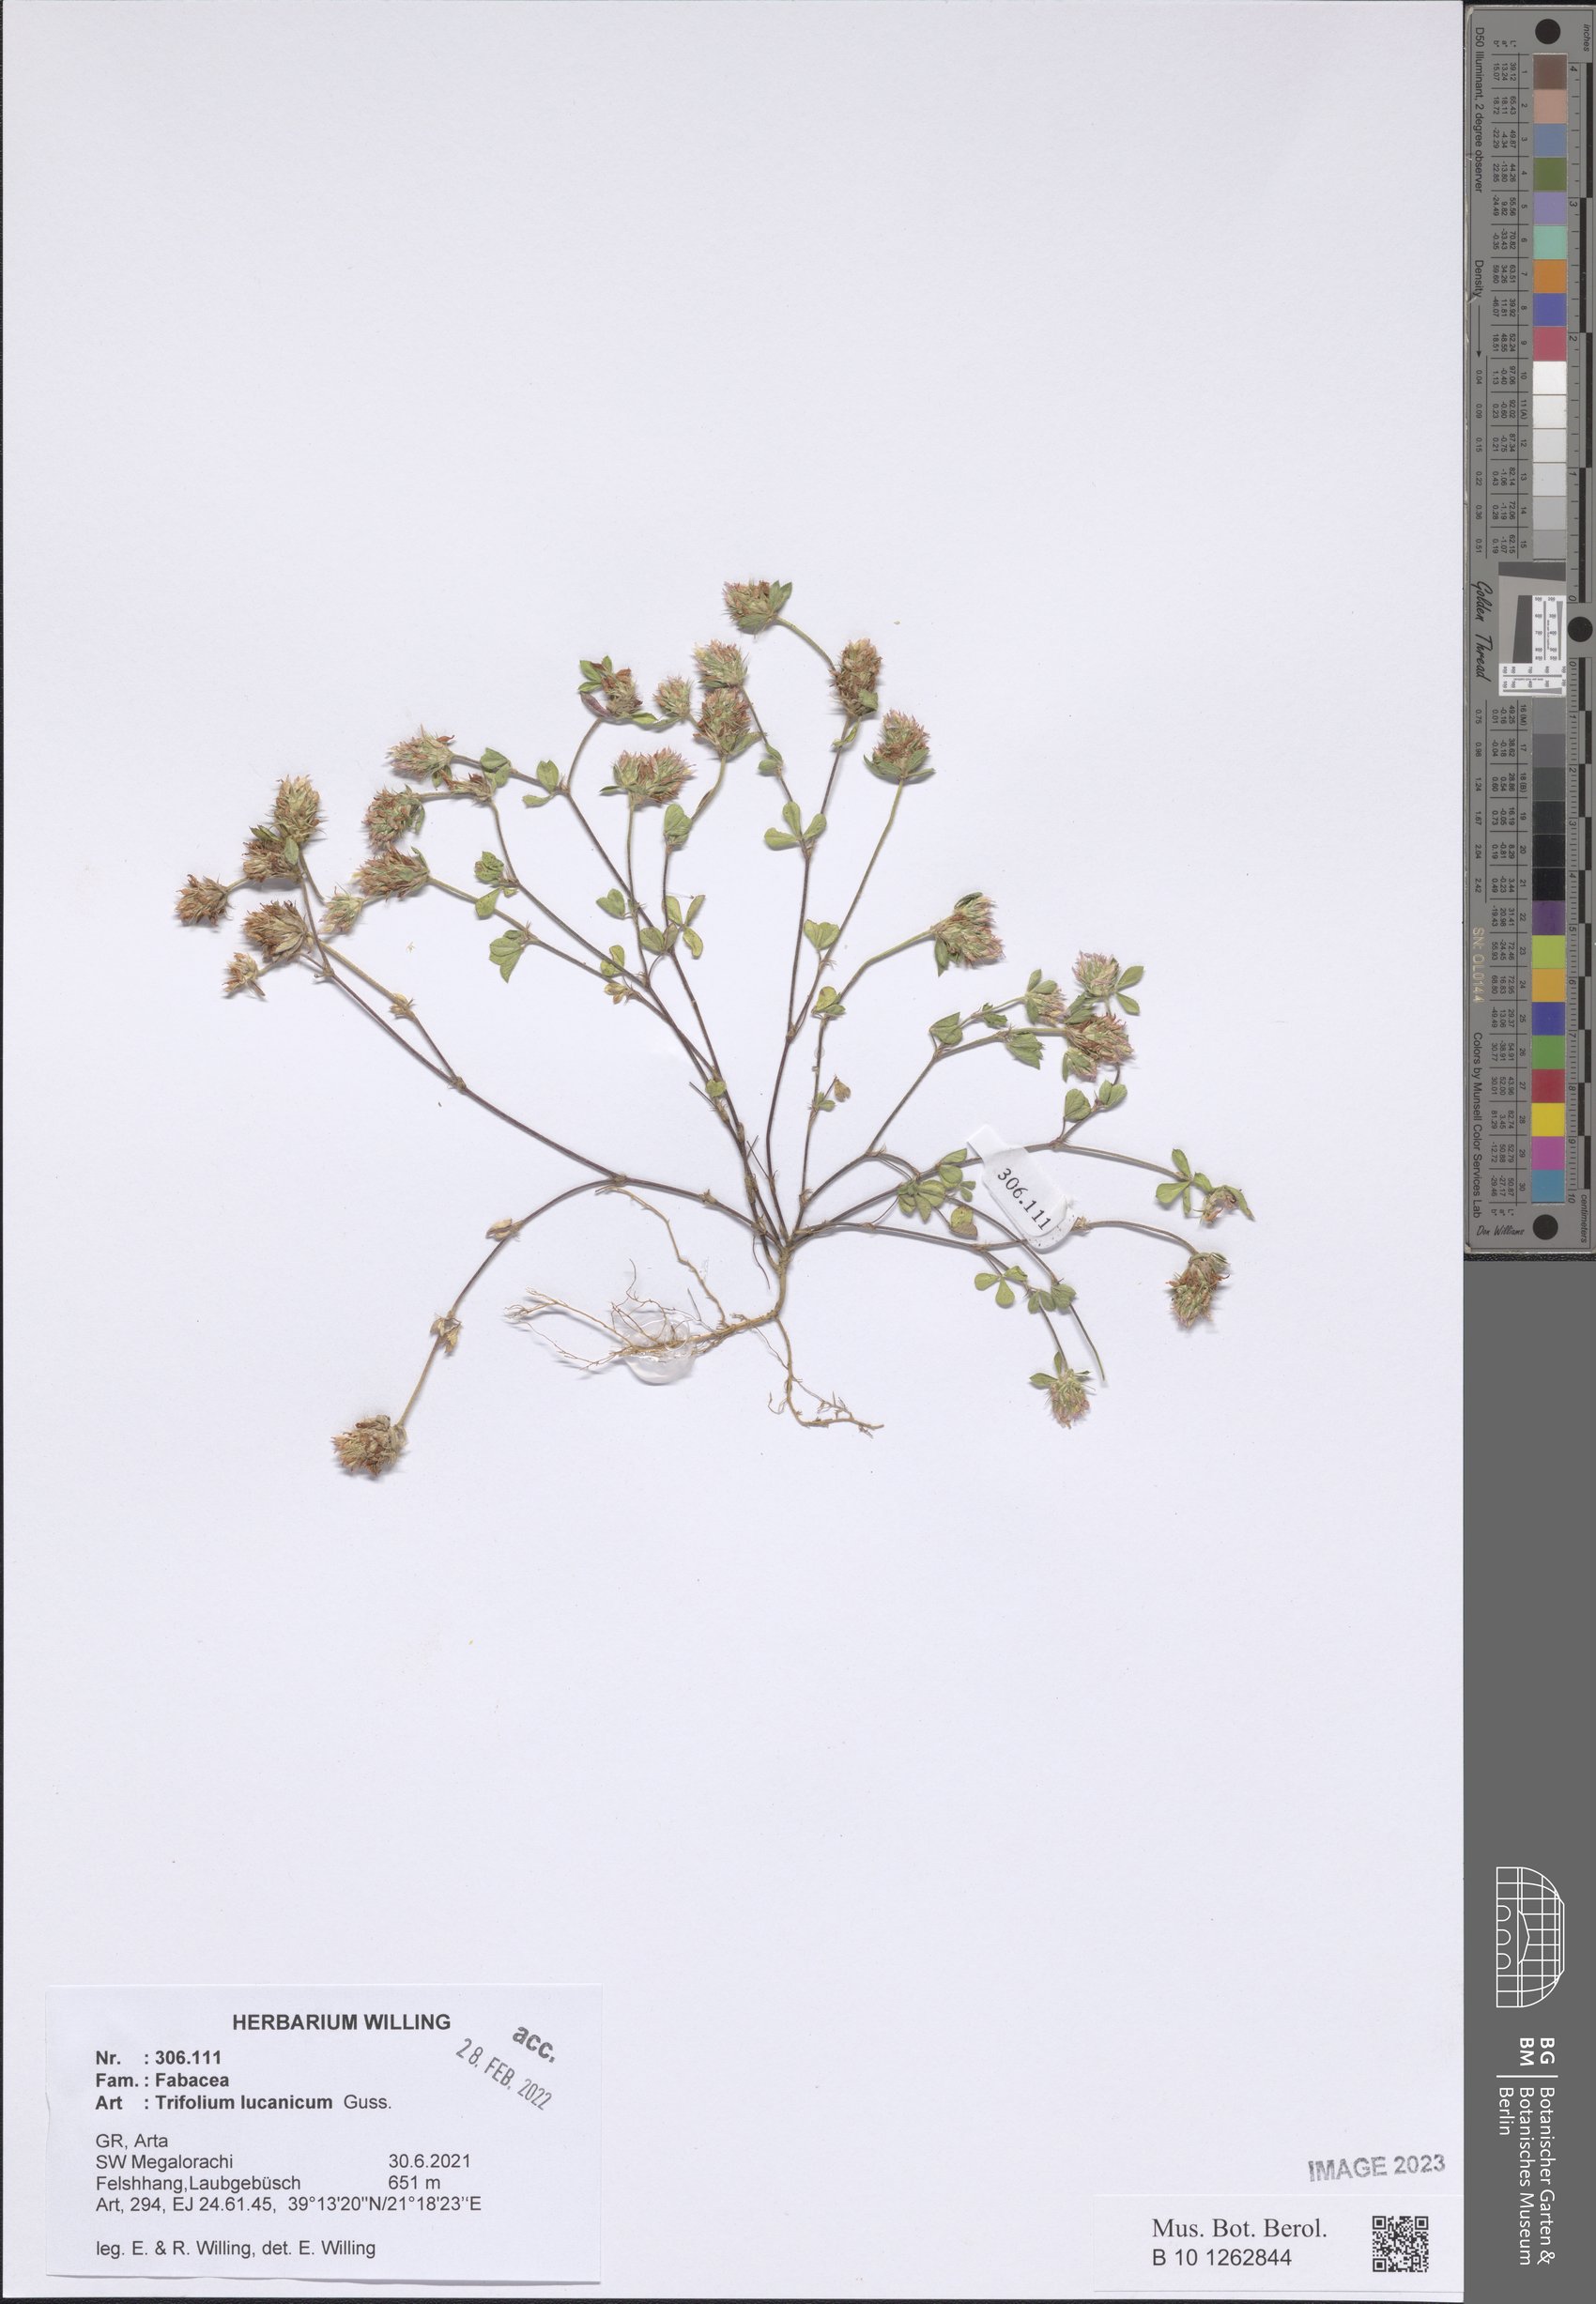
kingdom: Plantae
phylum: Tracheophyta
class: Magnoliopsida
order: Fabales
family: Fabaceae
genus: Trifolium
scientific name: Trifolium lucanicum
